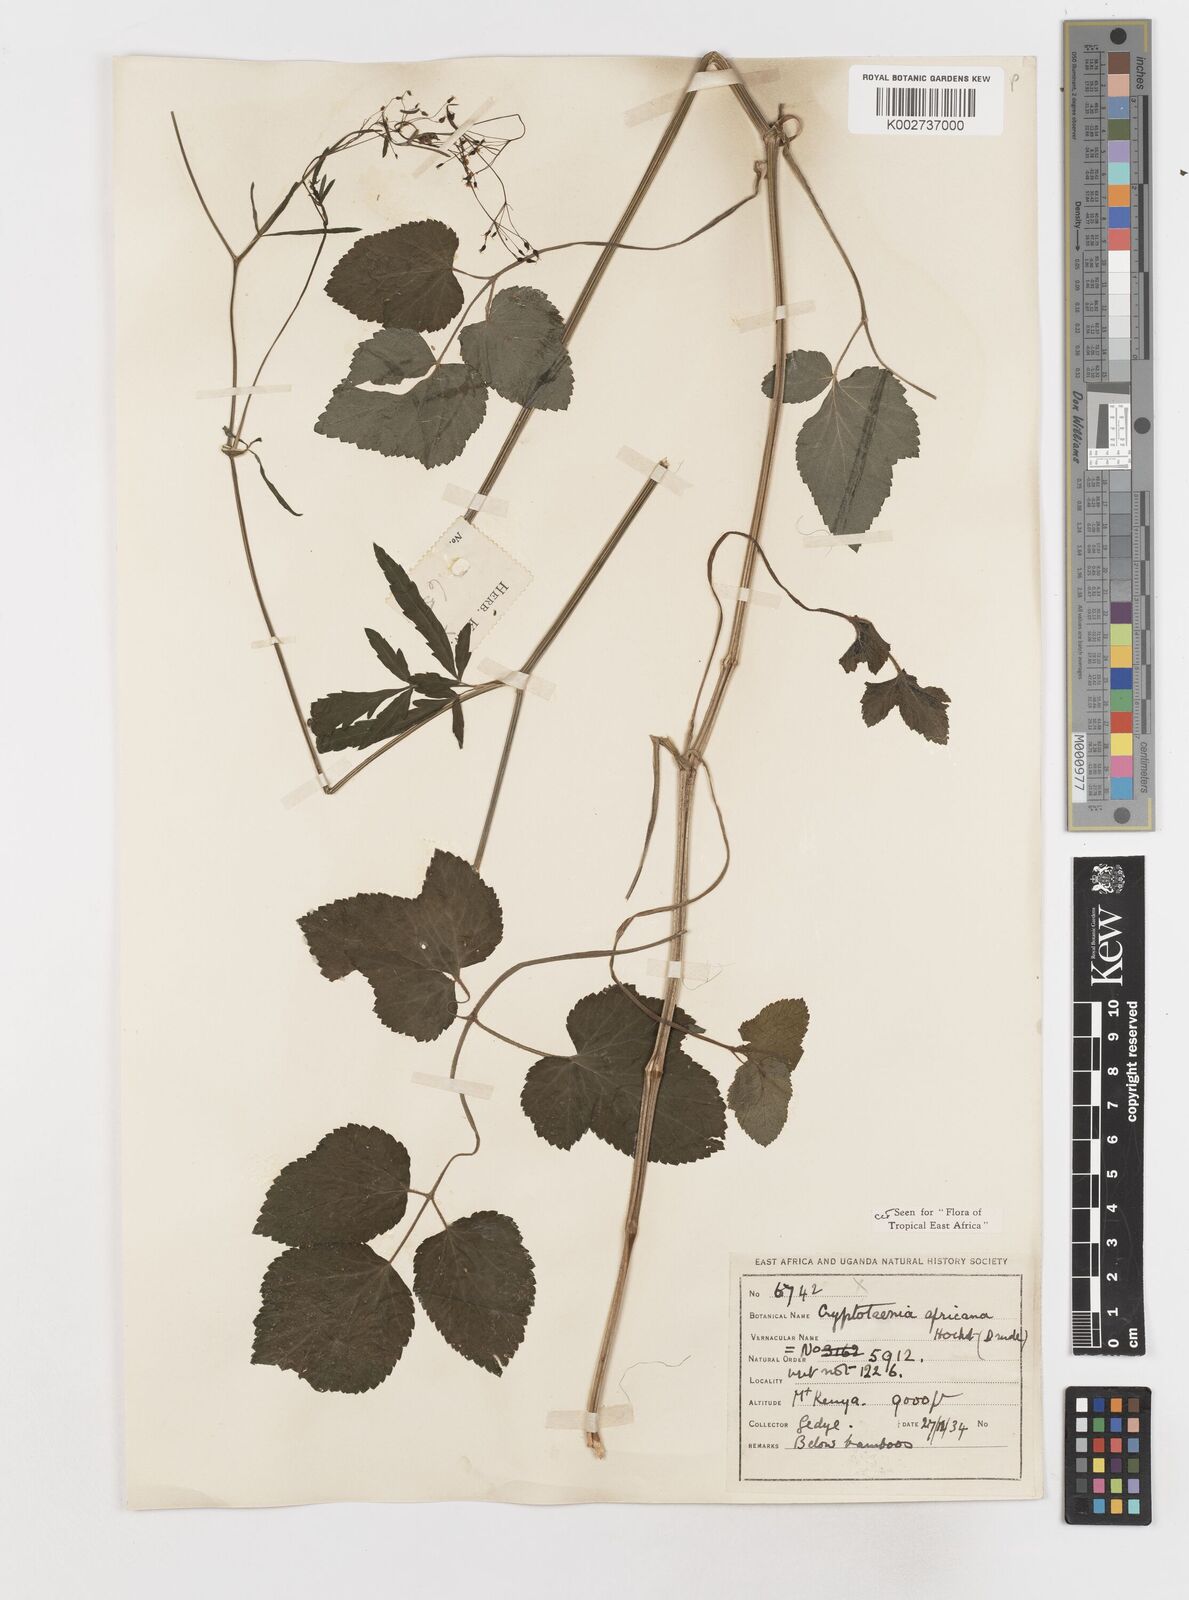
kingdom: Plantae
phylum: Tracheophyta
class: Magnoliopsida
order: Apiales
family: Apiaceae
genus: Cryptotaenia
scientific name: Cryptotaenia africana
